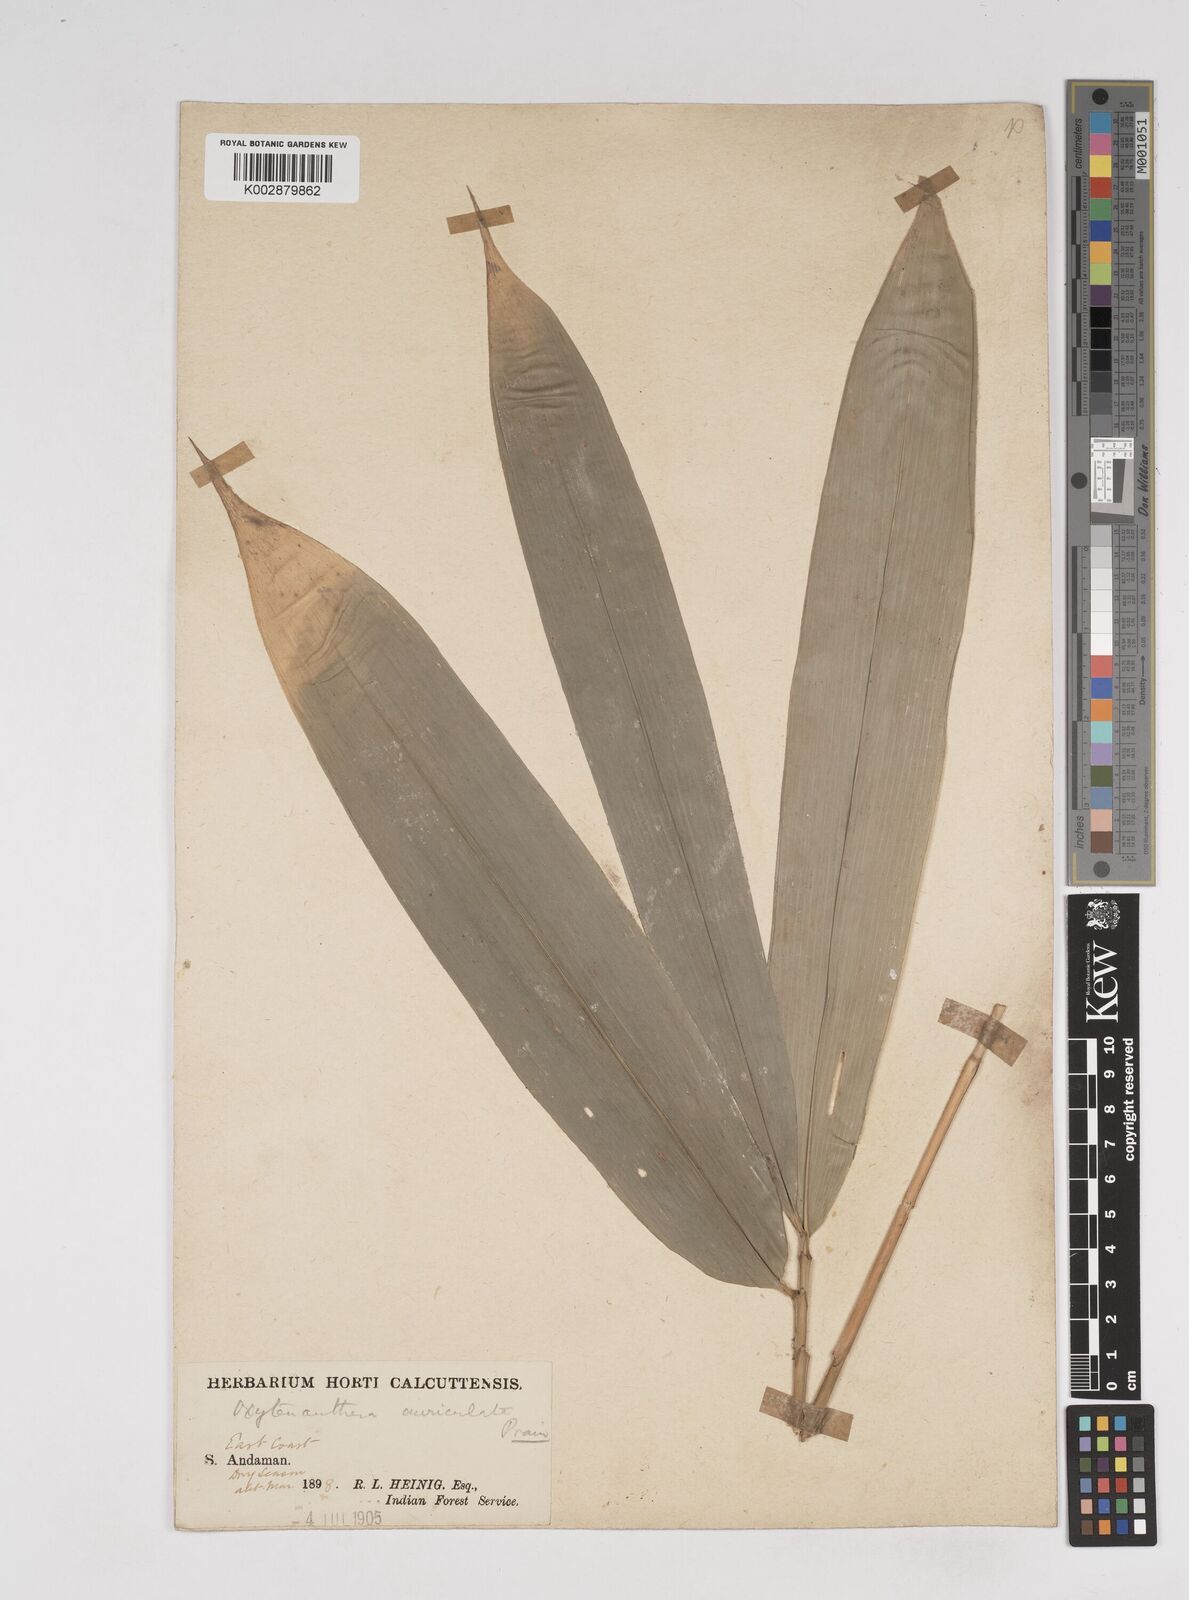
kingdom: Plantae
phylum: Tracheophyta
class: Liliopsida
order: Poales
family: Poaceae
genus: Gigantochloa
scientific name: Gigantochloa
